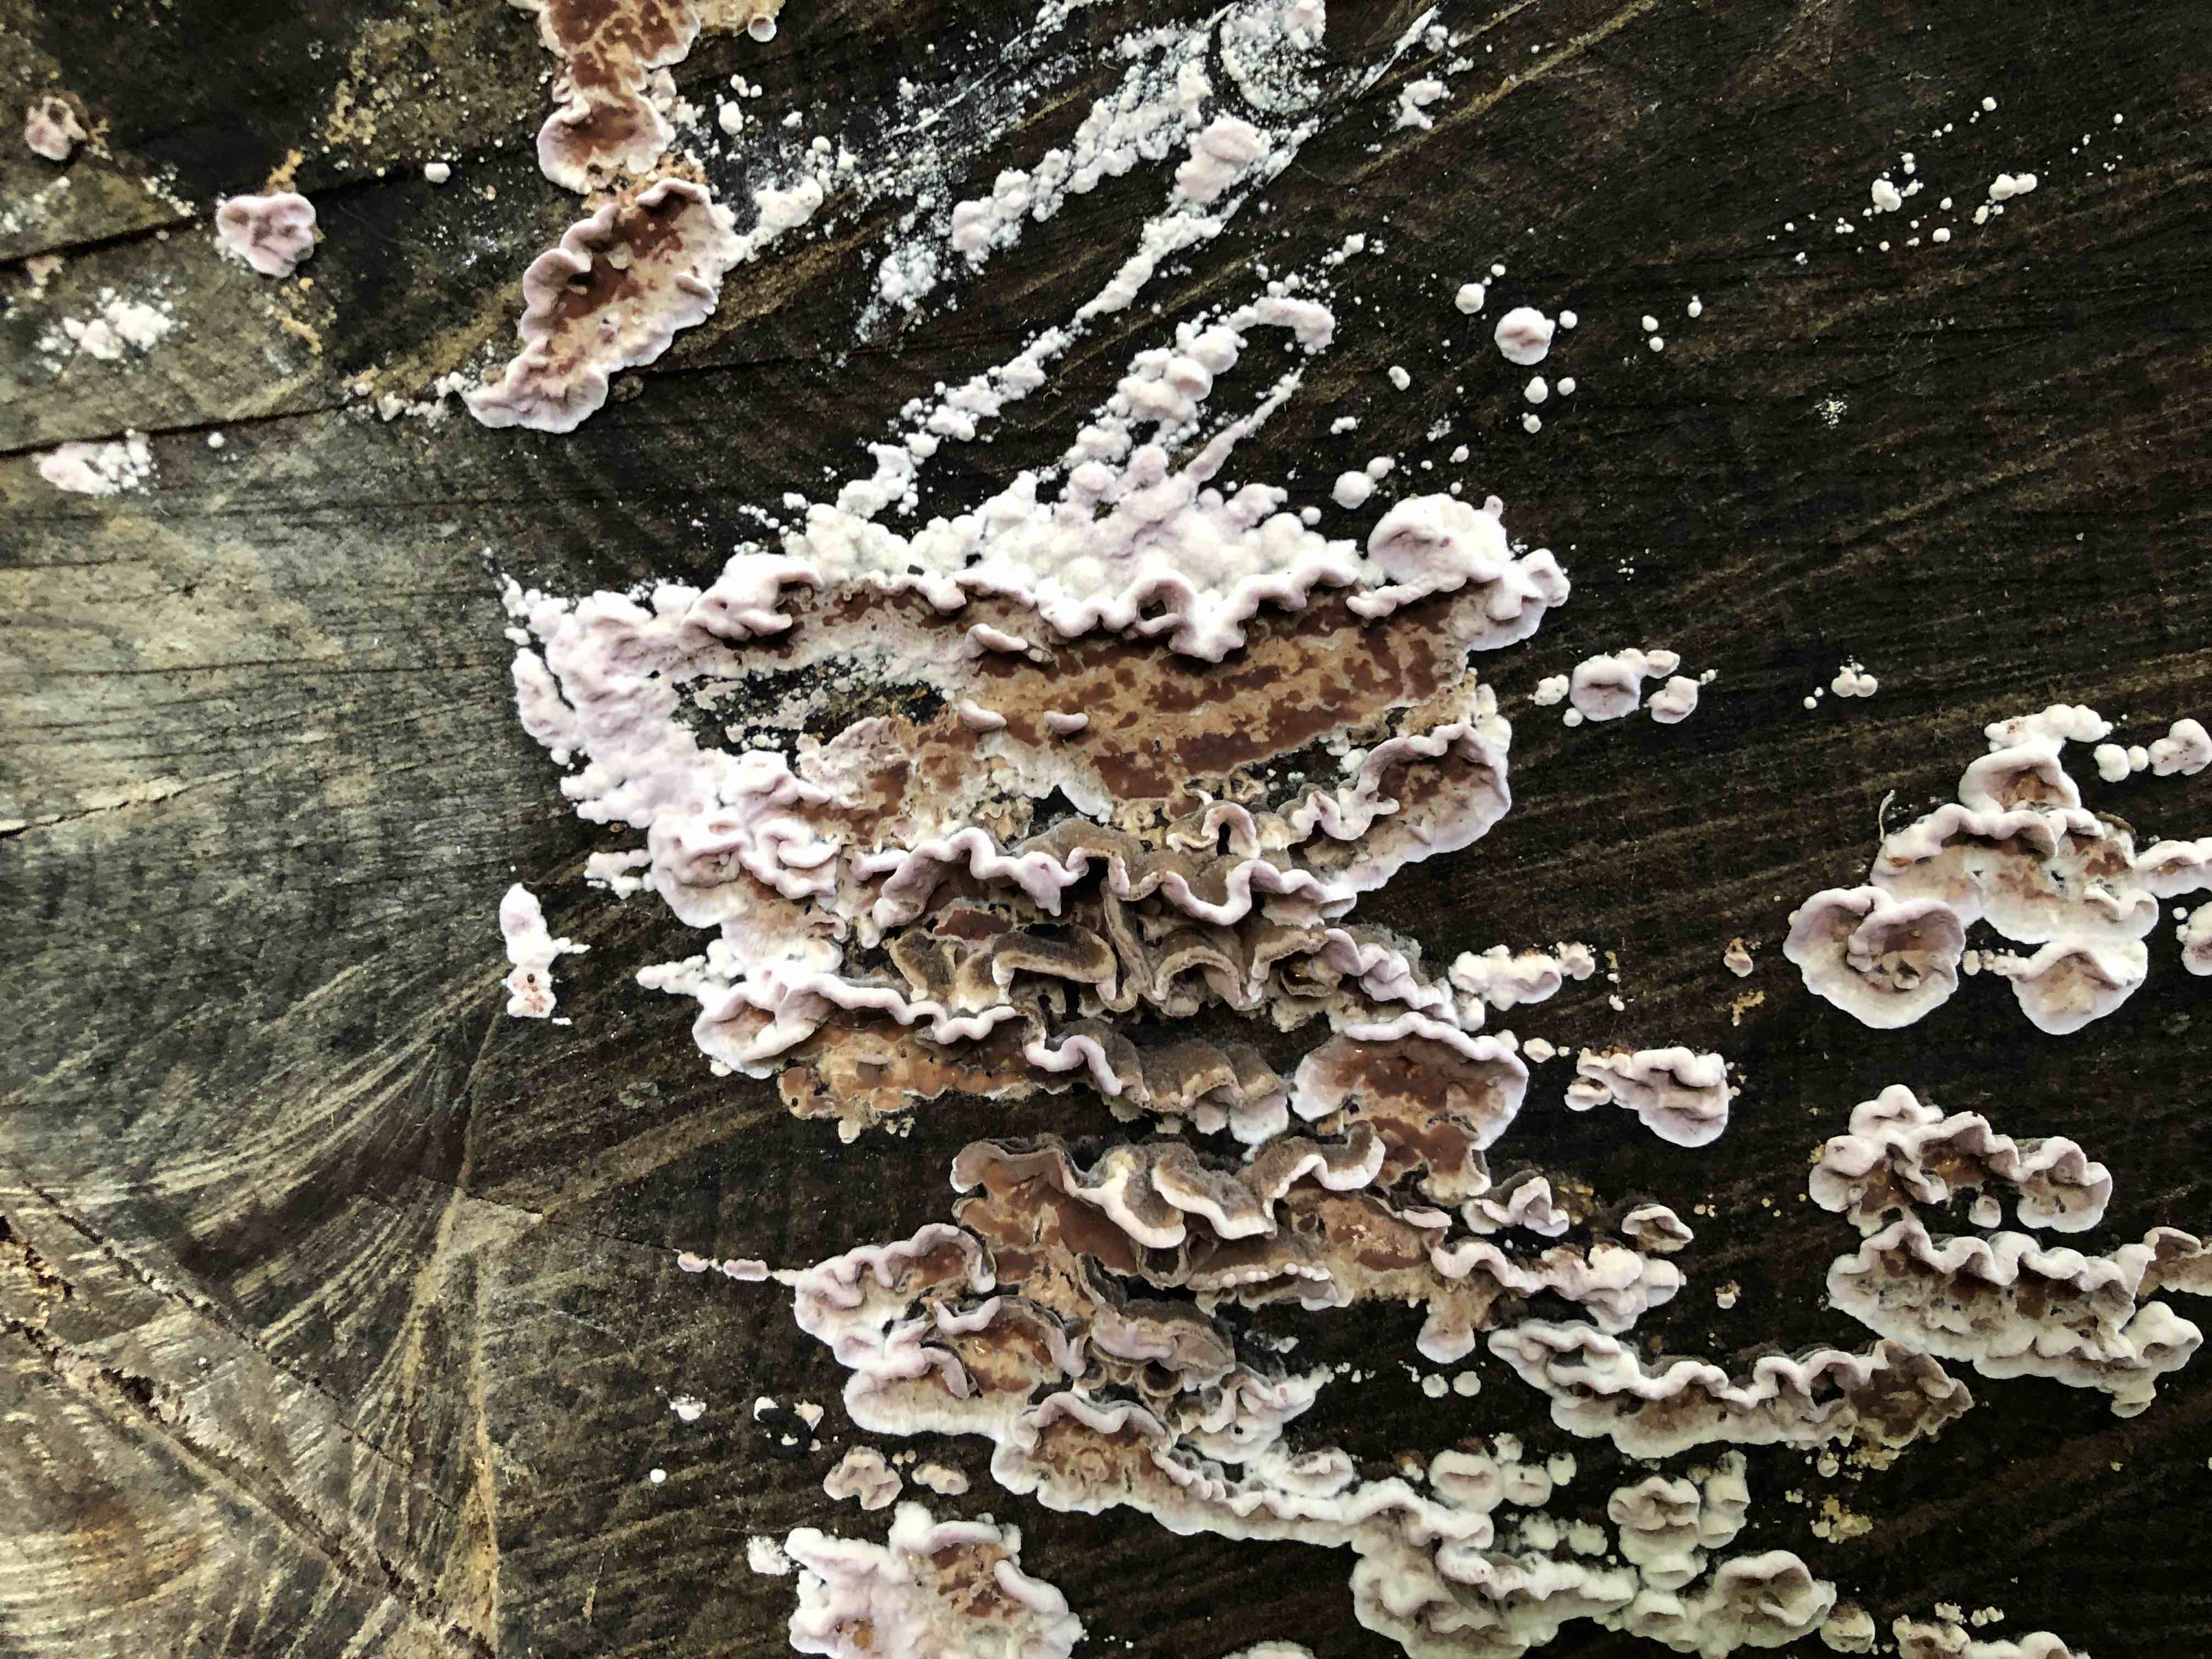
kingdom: Fungi
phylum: Basidiomycota
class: Agaricomycetes
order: Agaricales
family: Cyphellaceae
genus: Chondrostereum
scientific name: Chondrostereum purpureum
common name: purpurlædersvamp
